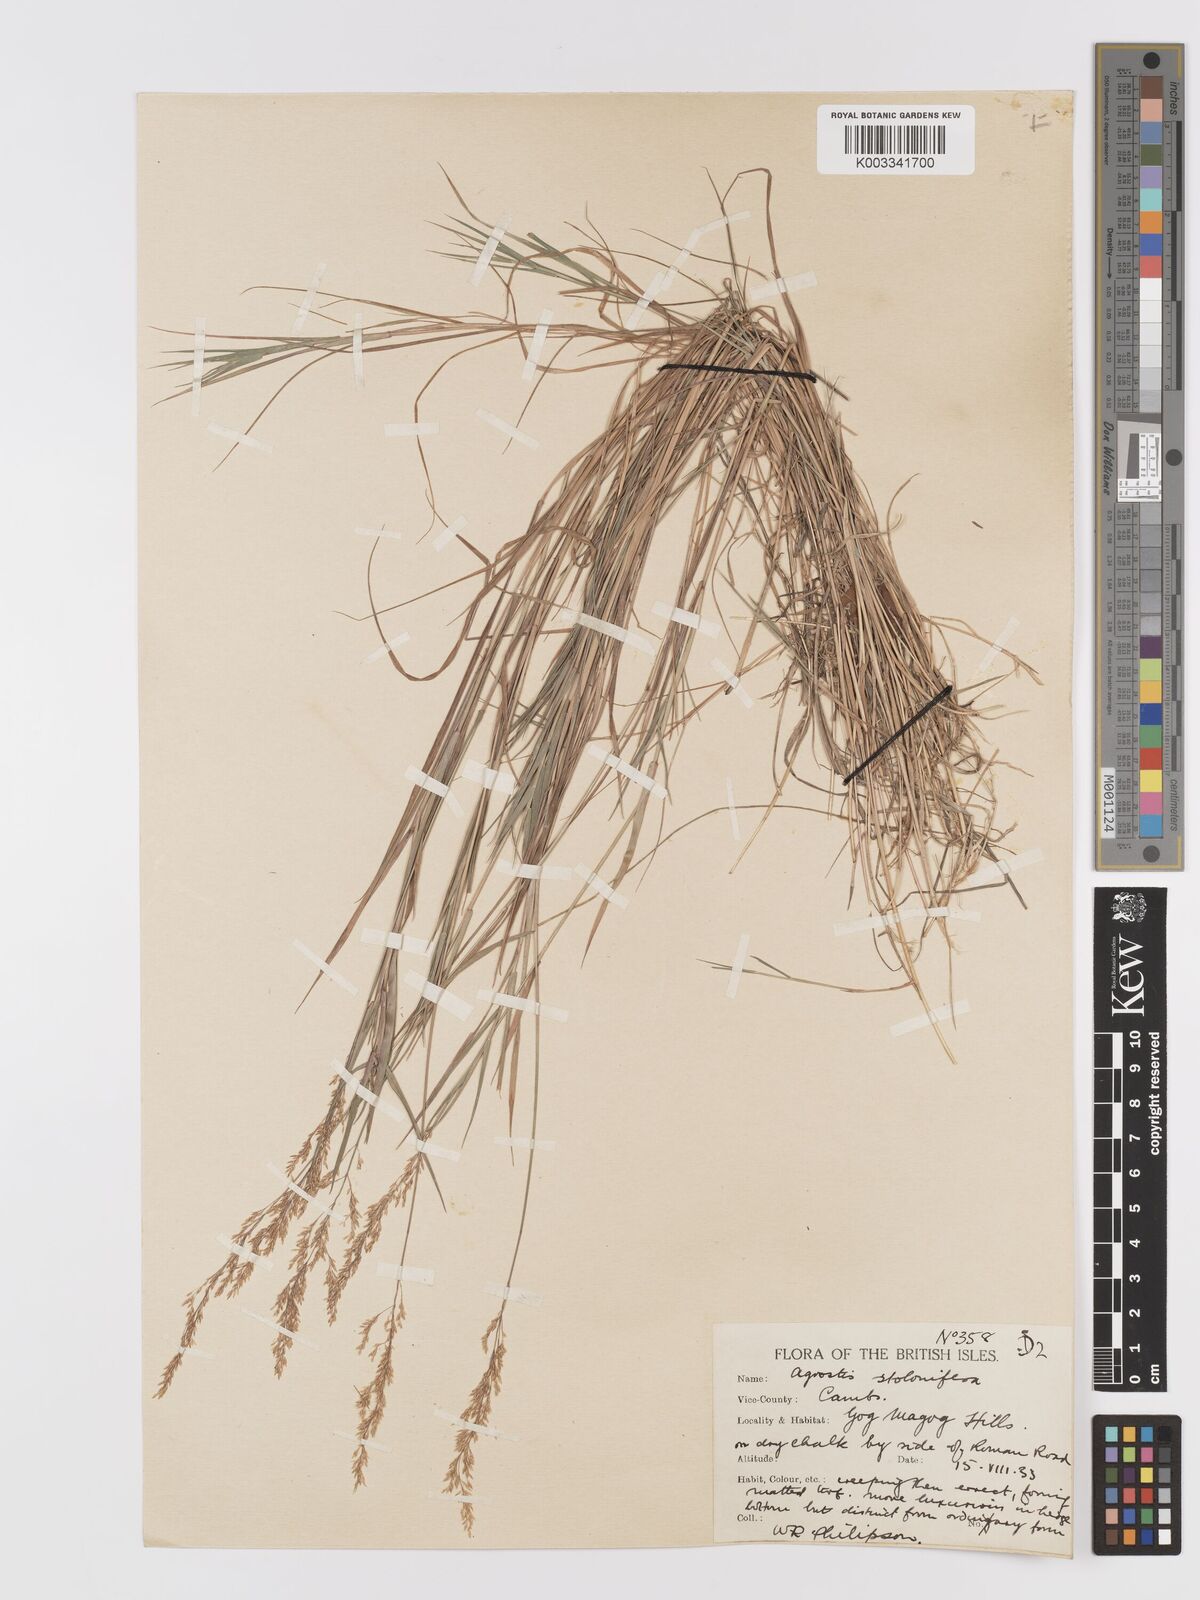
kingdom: Plantae
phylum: Tracheophyta
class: Liliopsida
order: Poales
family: Poaceae
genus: Agrostis
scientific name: Agrostis stolonifera
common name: Creeping bentgrass
